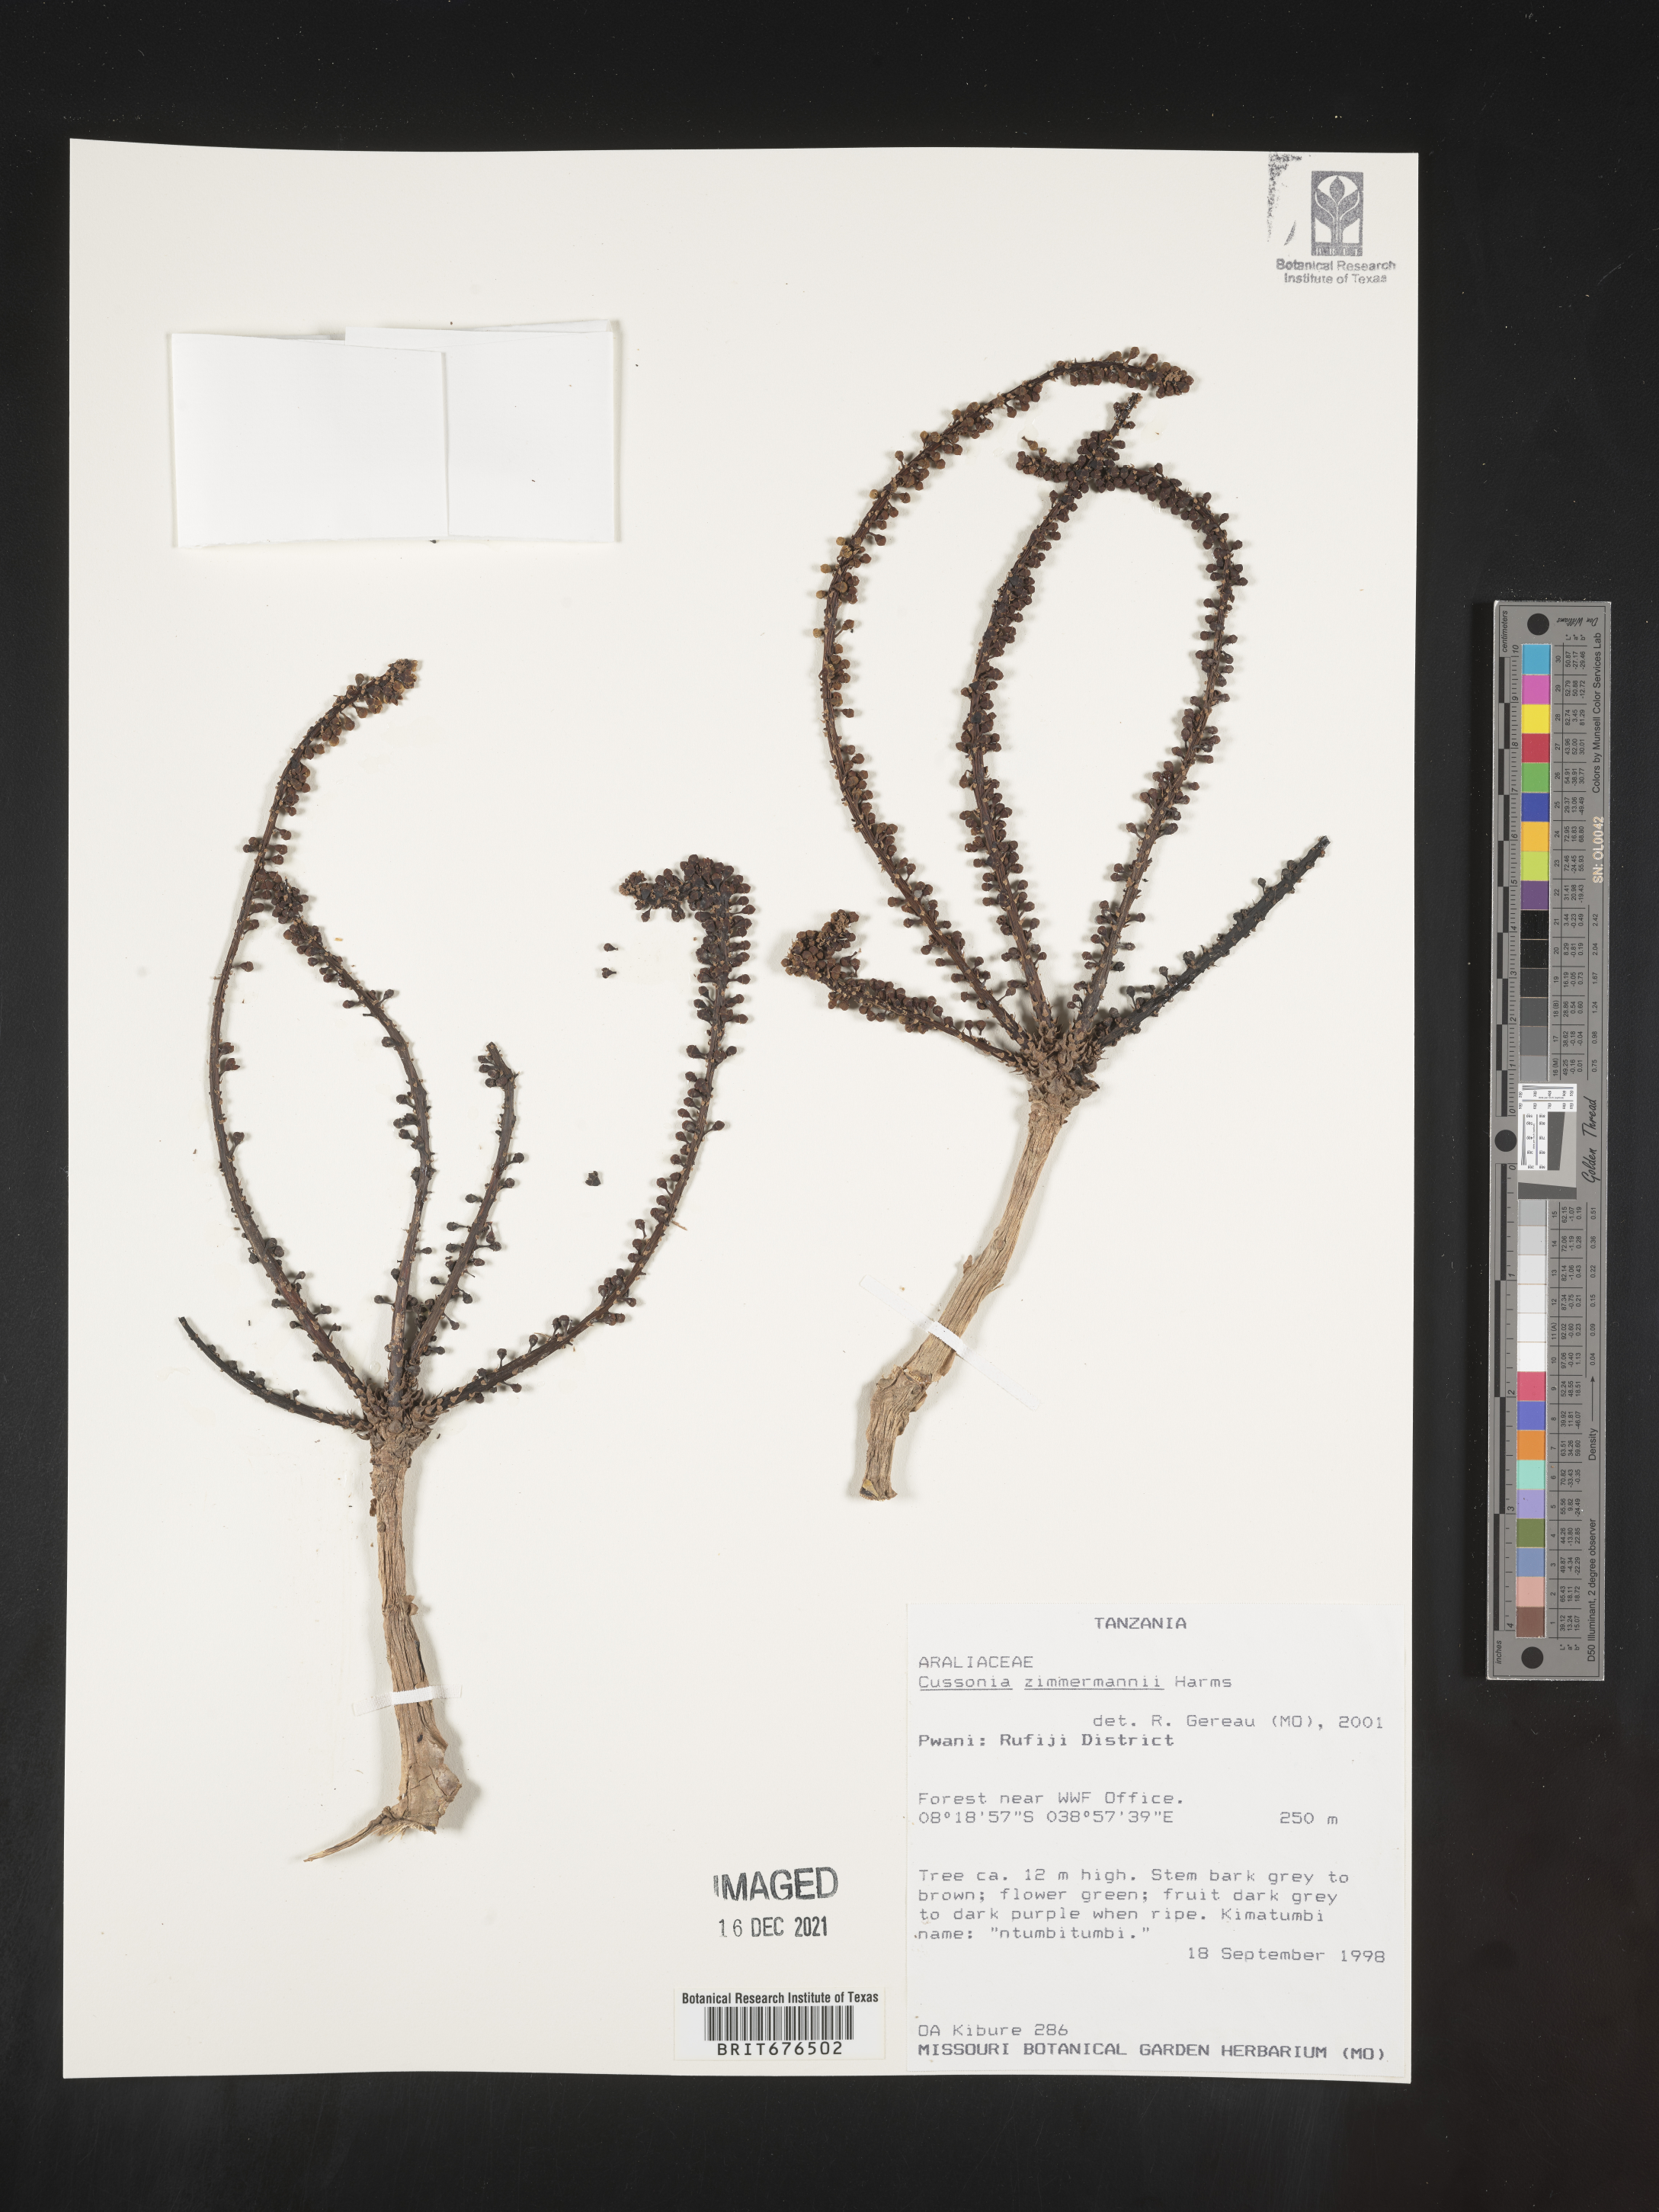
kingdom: Plantae
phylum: Tracheophyta
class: Magnoliopsida
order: Apiales
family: Araliaceae
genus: Cussonia
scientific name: Cussonia
